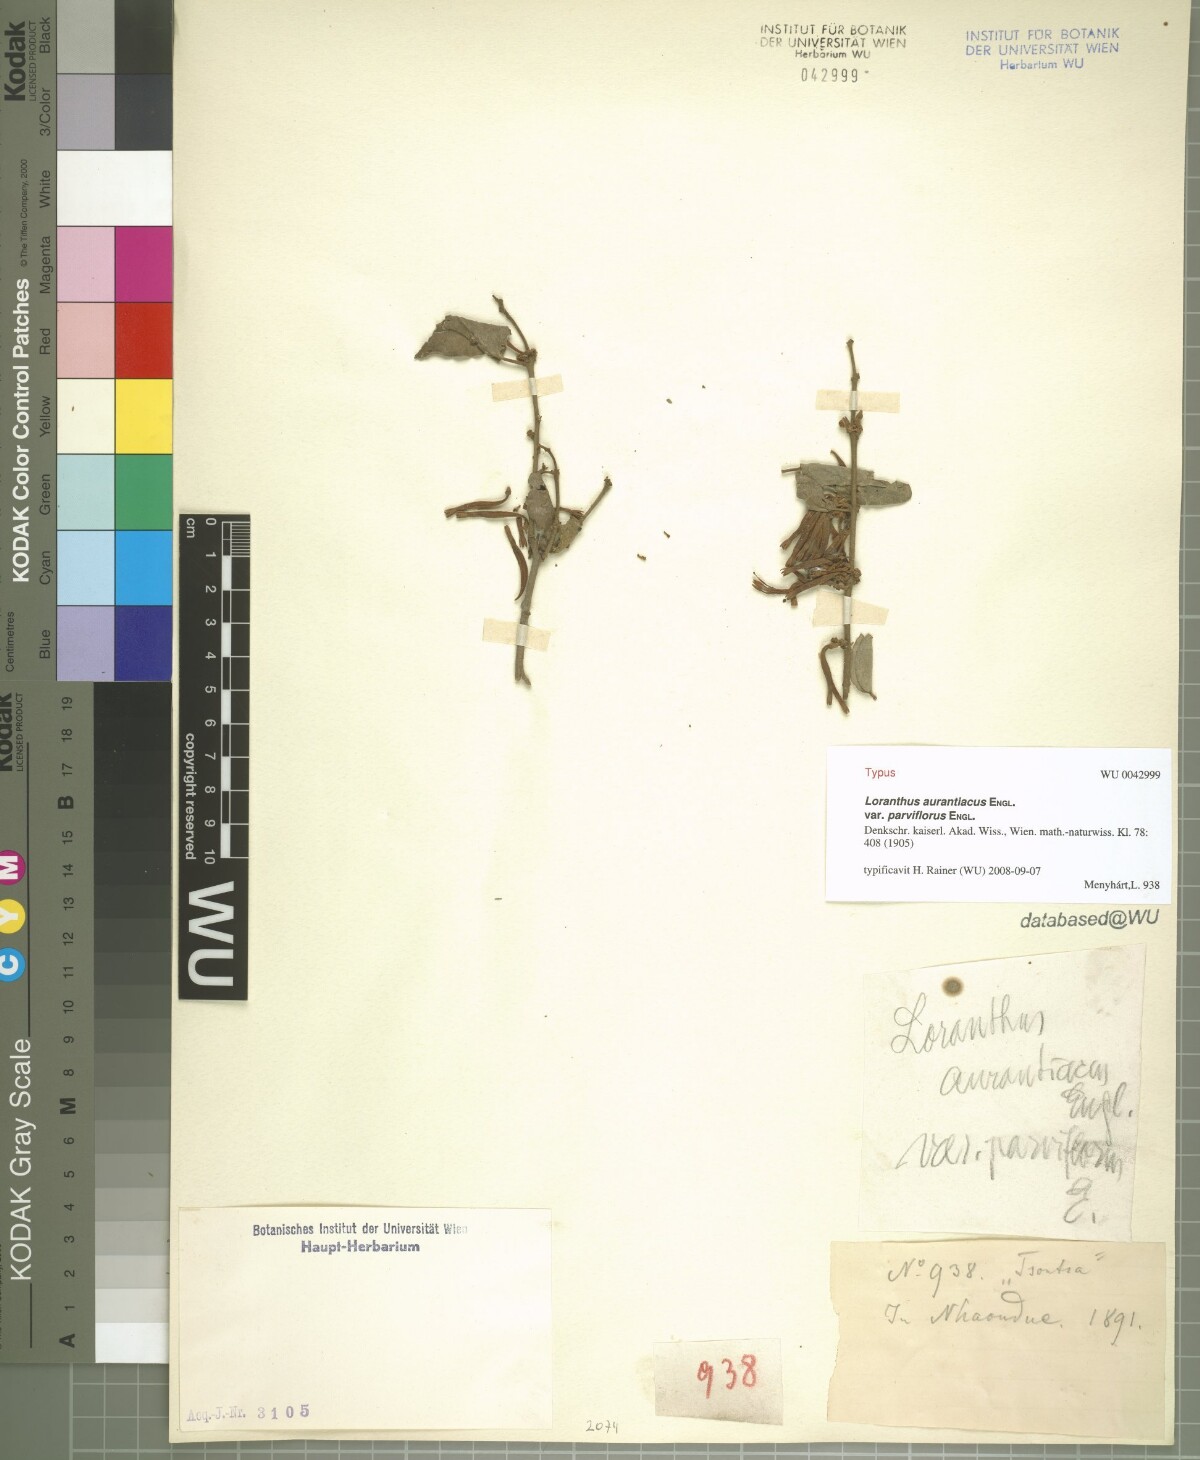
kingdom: Plantae
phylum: Tracheophyta
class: Magnoliopsida
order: Santalales
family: Loranthaceae
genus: Agelanthus
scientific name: Agelanthus igneus
